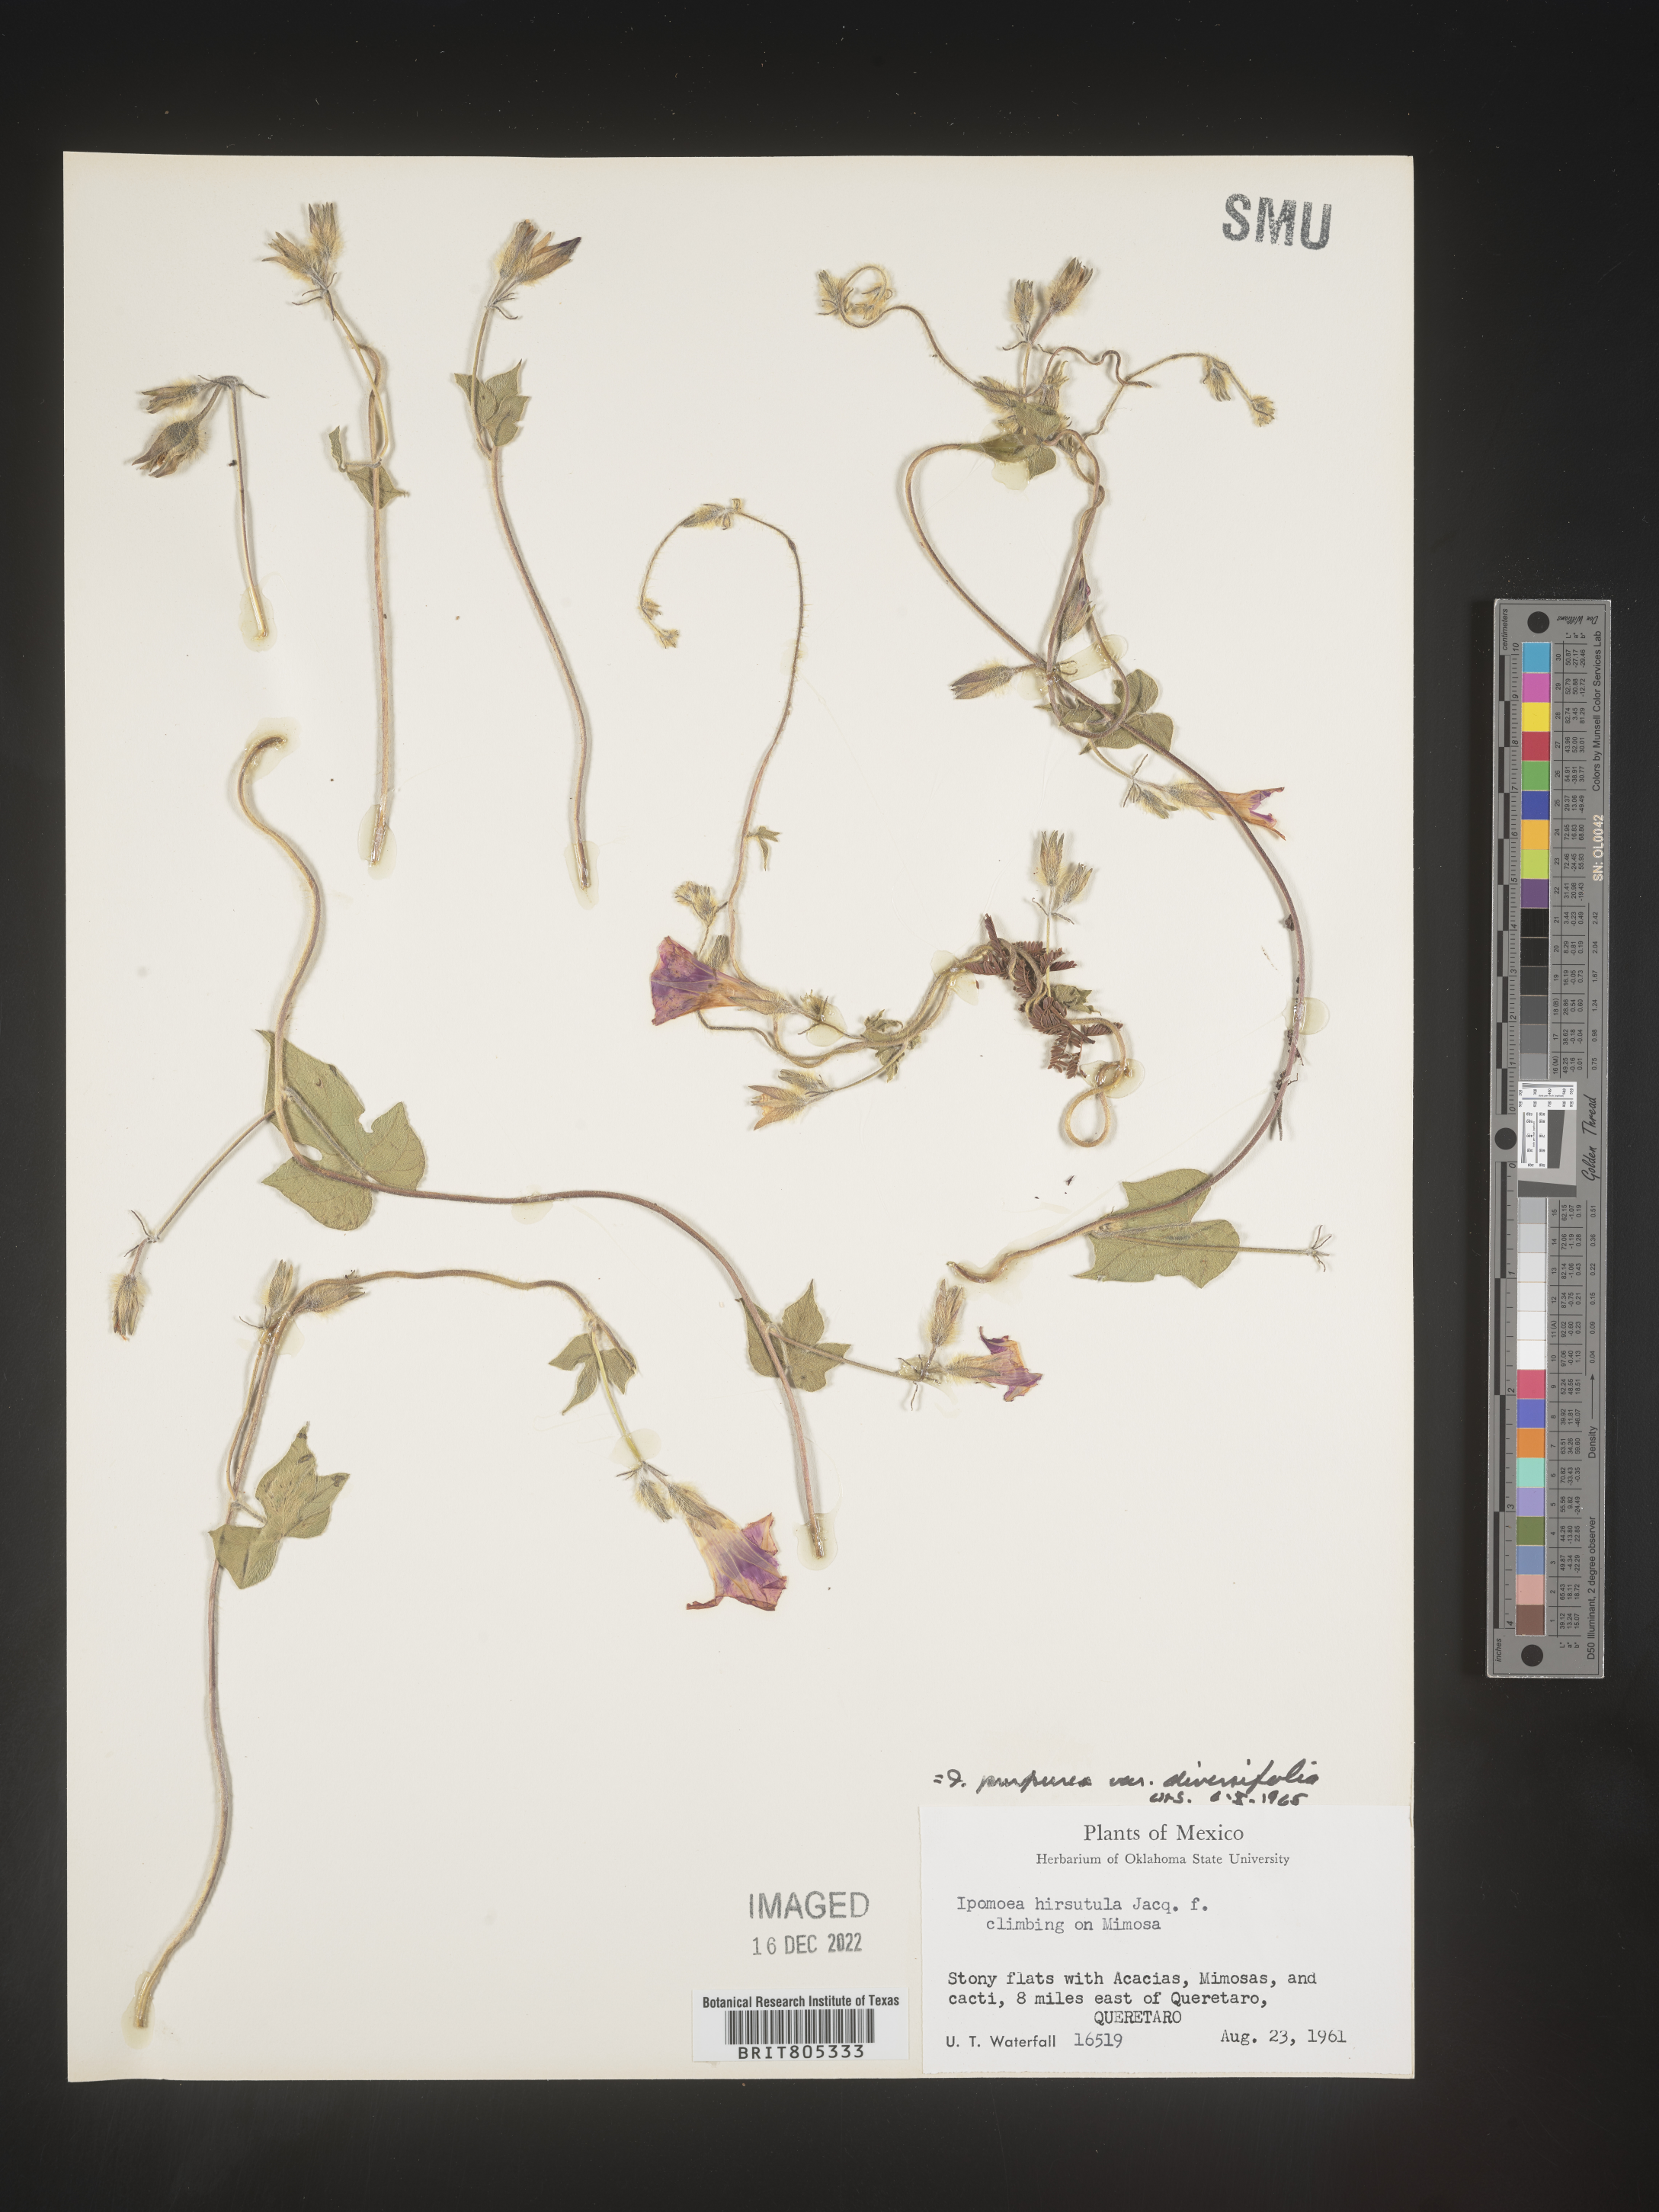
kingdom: Plantae
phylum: Tracheophyta
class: Magnoliopsida
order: Solanales
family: Convolvulaceae
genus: Ipomoea
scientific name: Ipomoea
